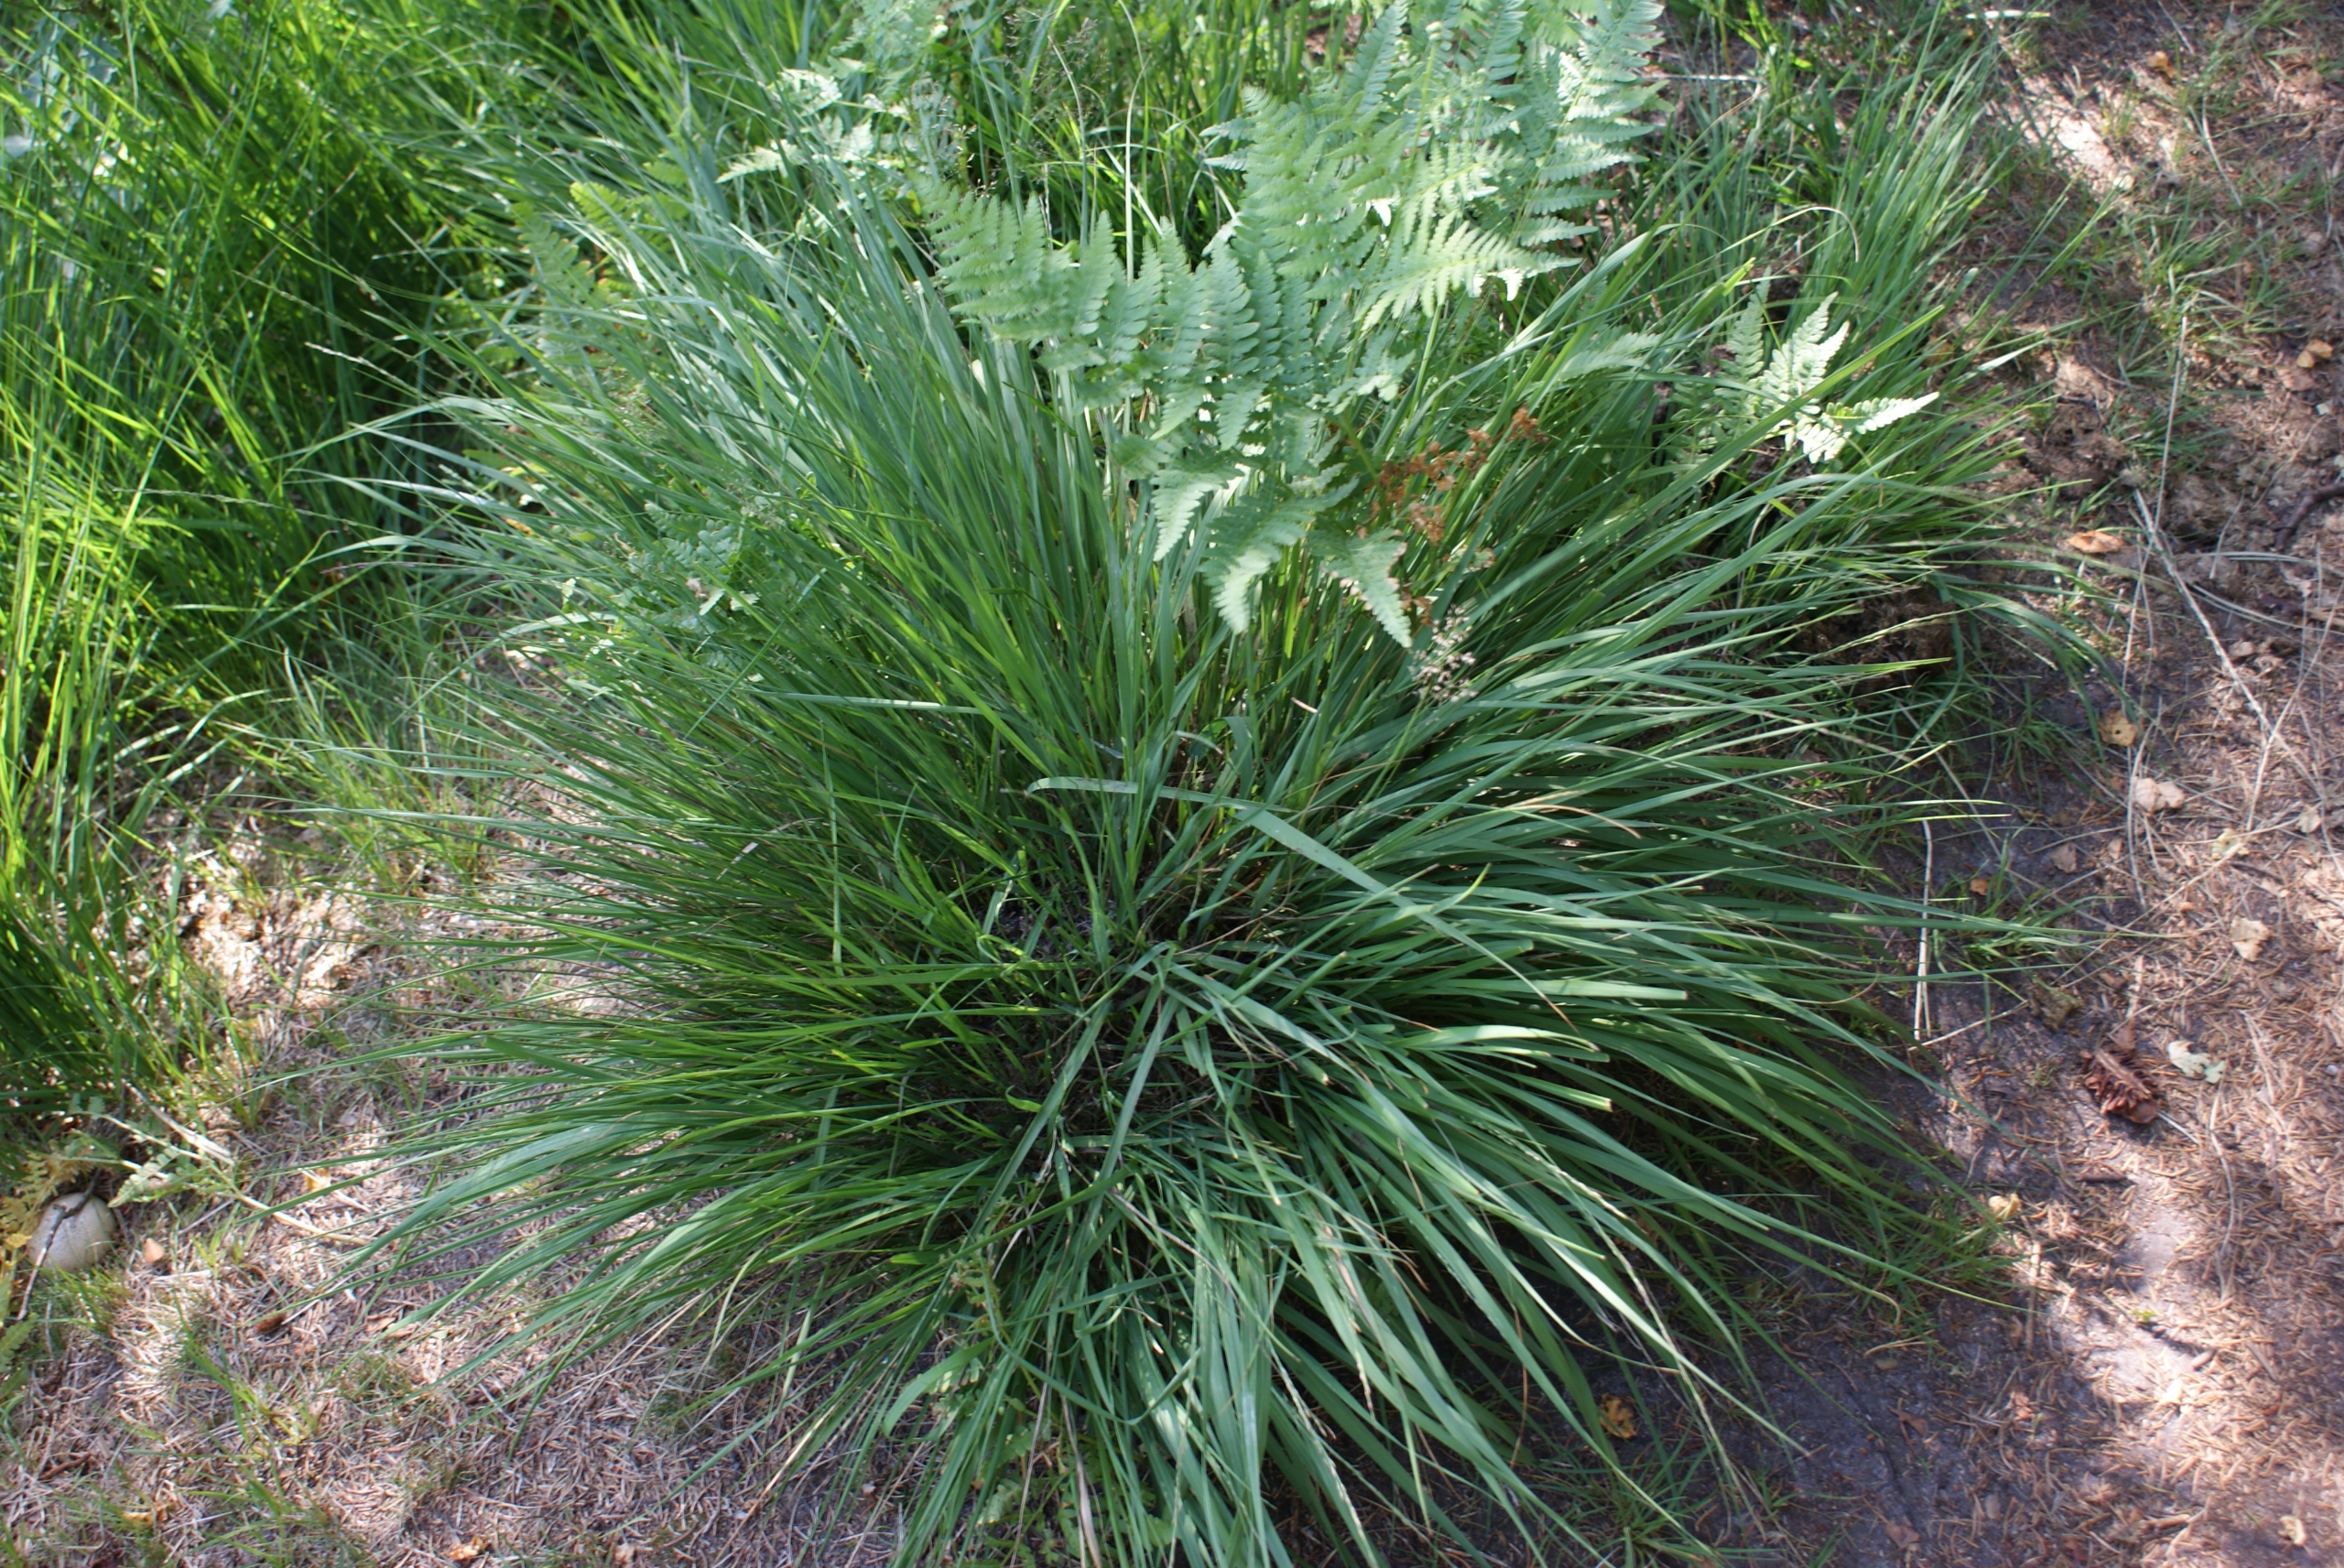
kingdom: Plantae
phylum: Tracheophyta
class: Liliopsida
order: Poales
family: Poaceae
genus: Molinia
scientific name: Molinia caerulea
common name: Blåtop
